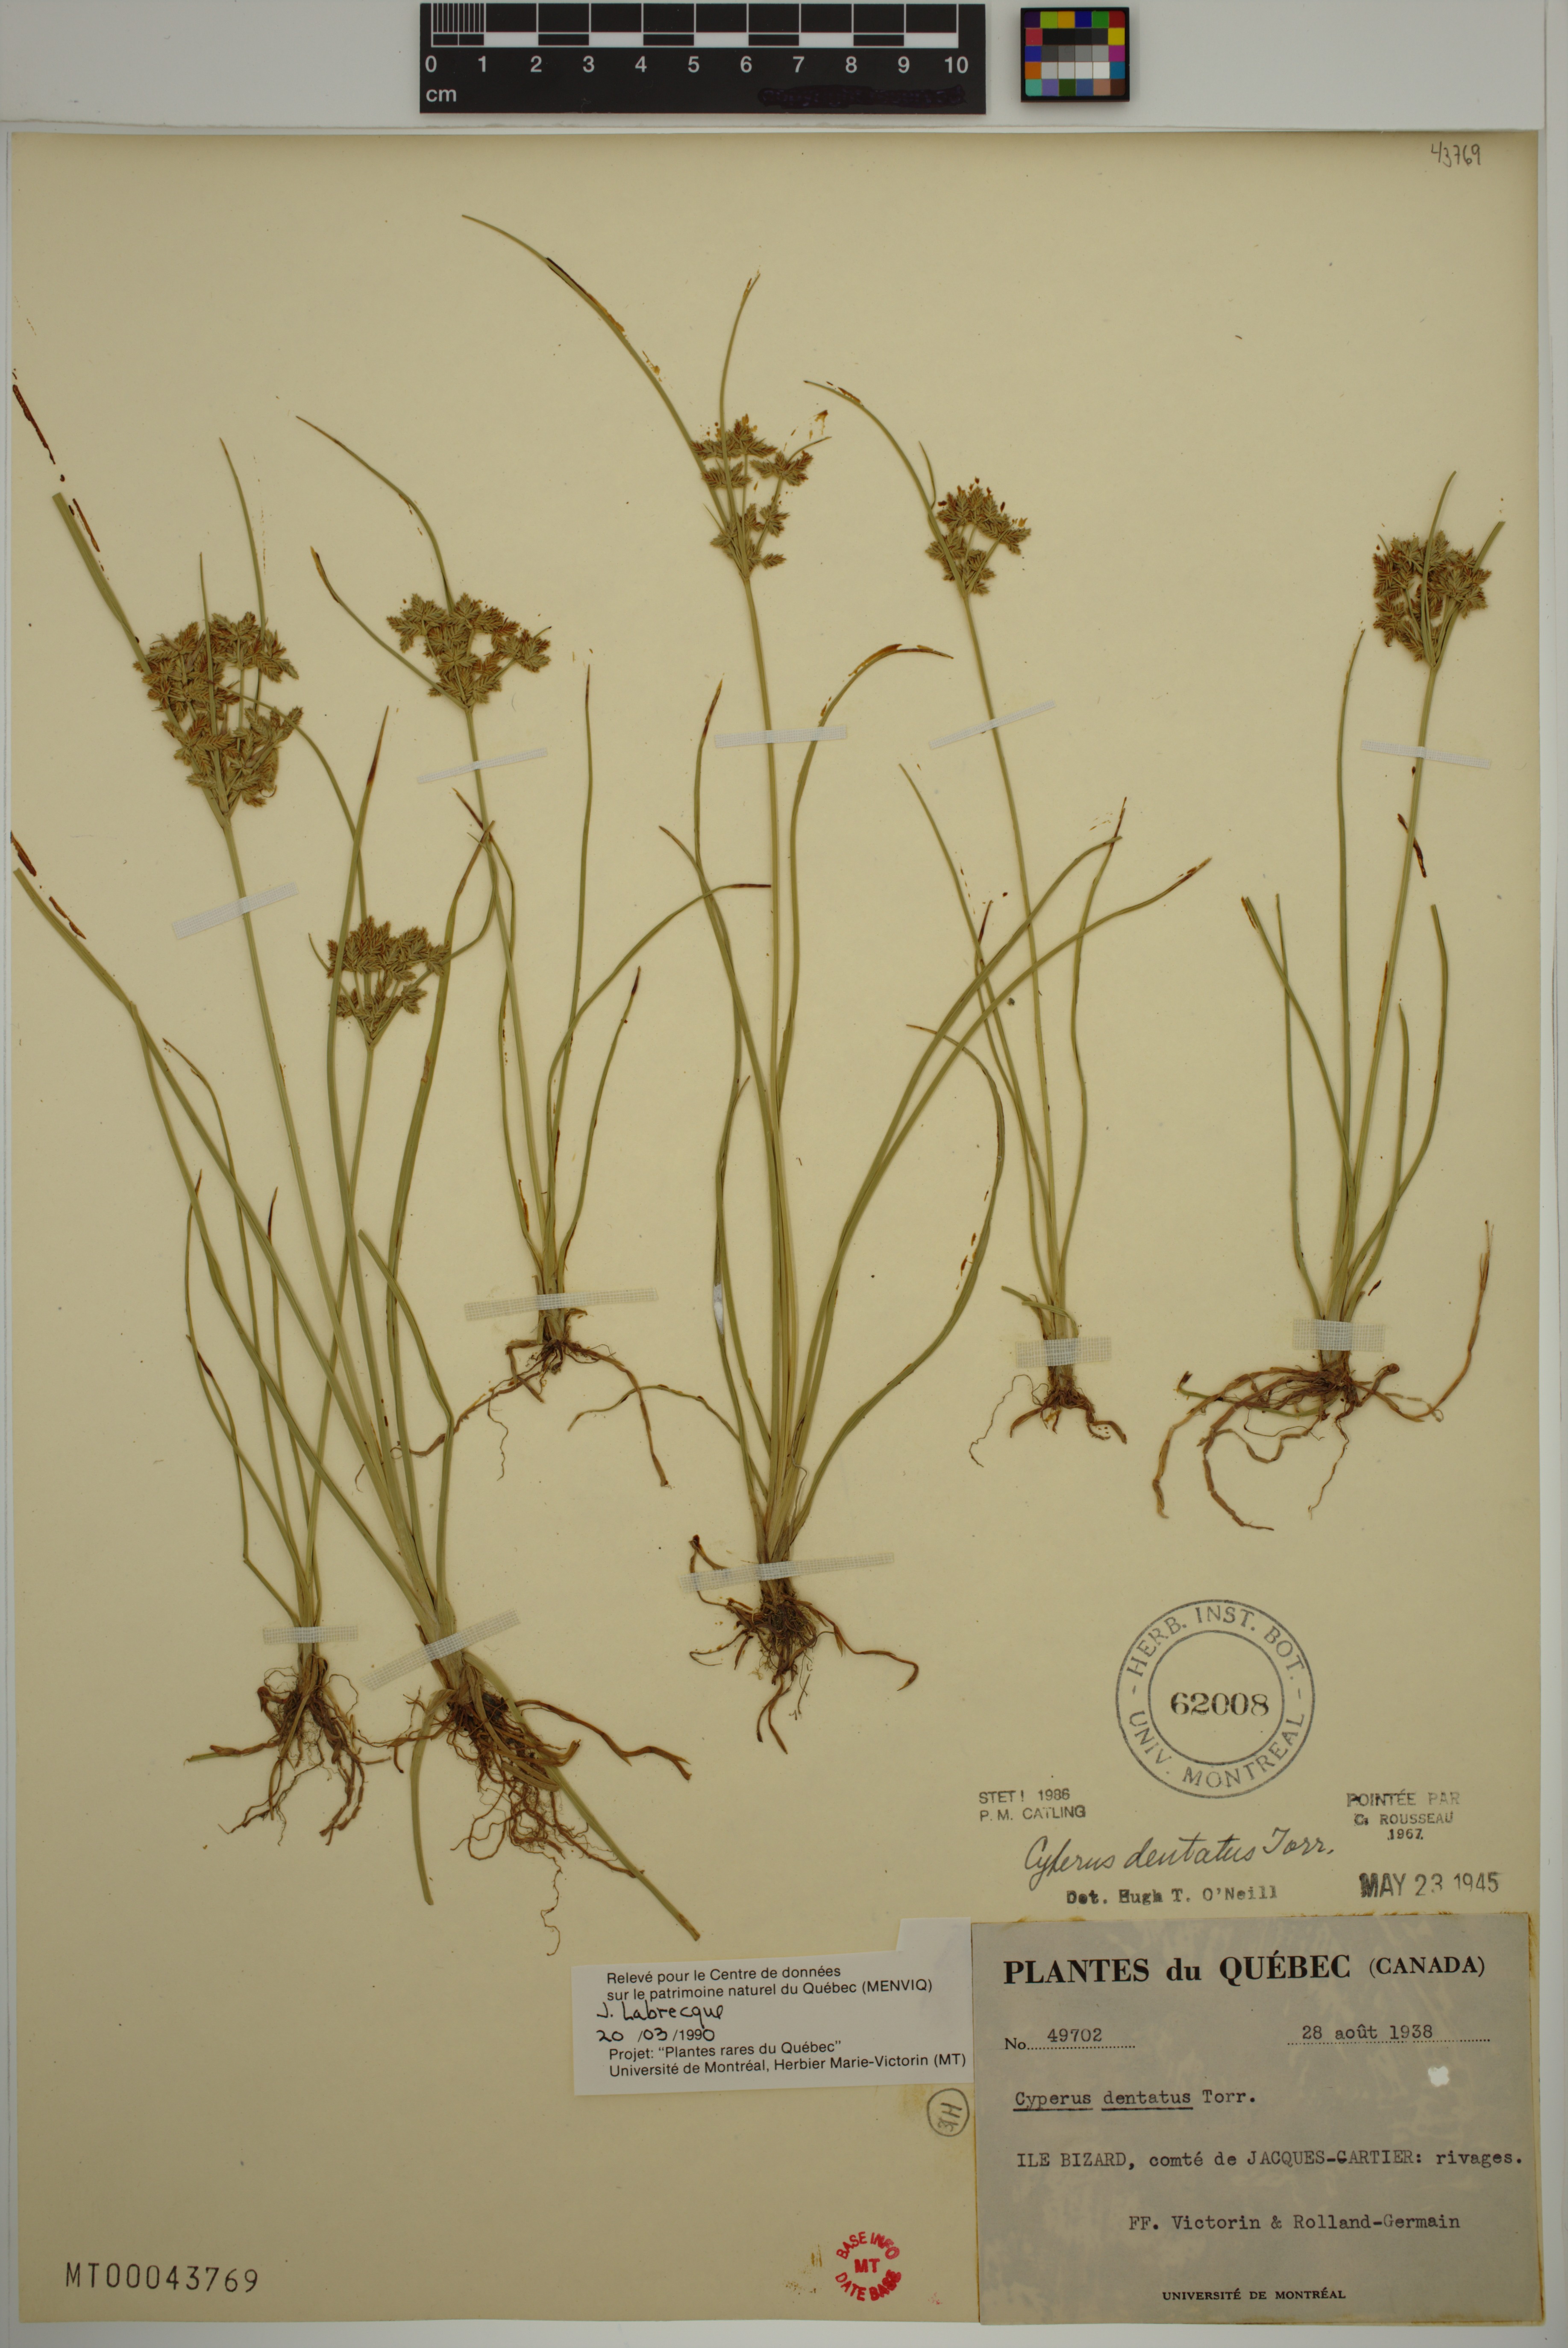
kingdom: Plantae
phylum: Tracheophyta
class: Liliopsida
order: Poales
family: Cyperaceae
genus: Cyperus
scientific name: Cyperus dentatus
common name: Dentate umbrella sedge
